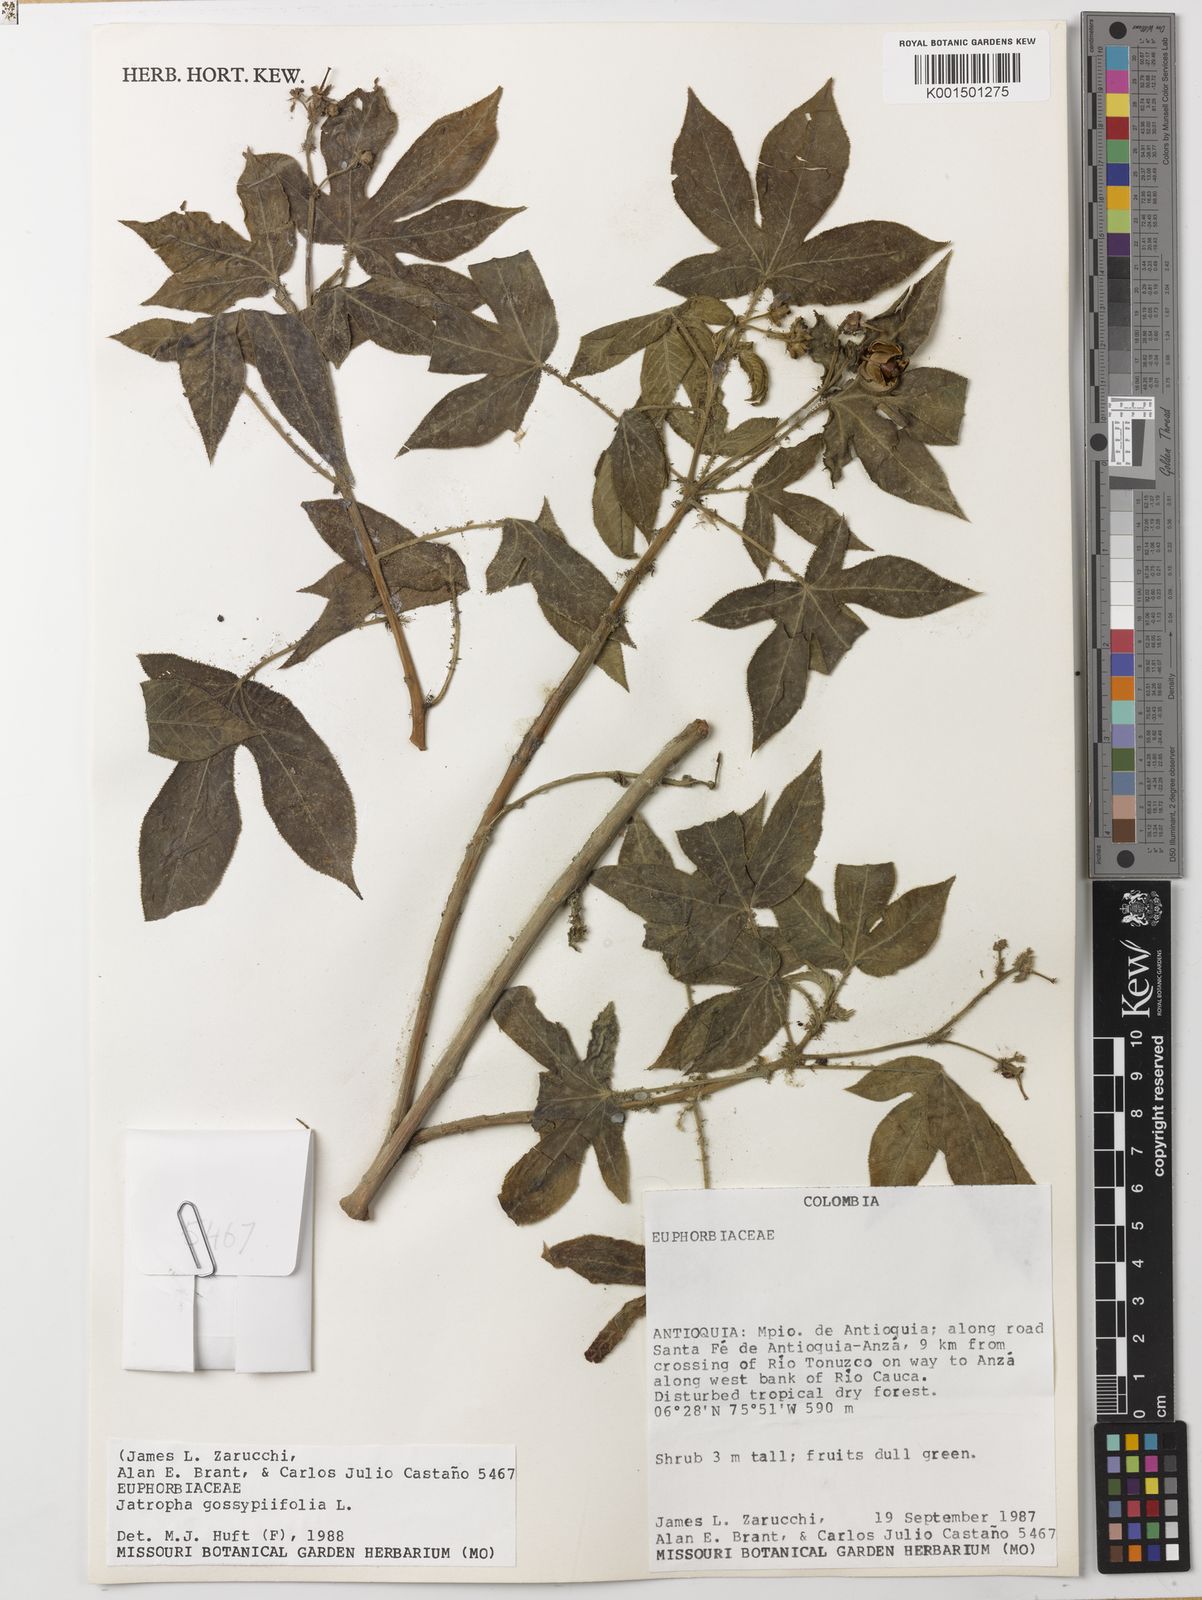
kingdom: Plantae
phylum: Tracheophyta
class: Magnoliopsida
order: Malpighiales
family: Euphorbiaceae
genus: Jatropha
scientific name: Jatropha gossypiifolia
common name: Bellyache bush
